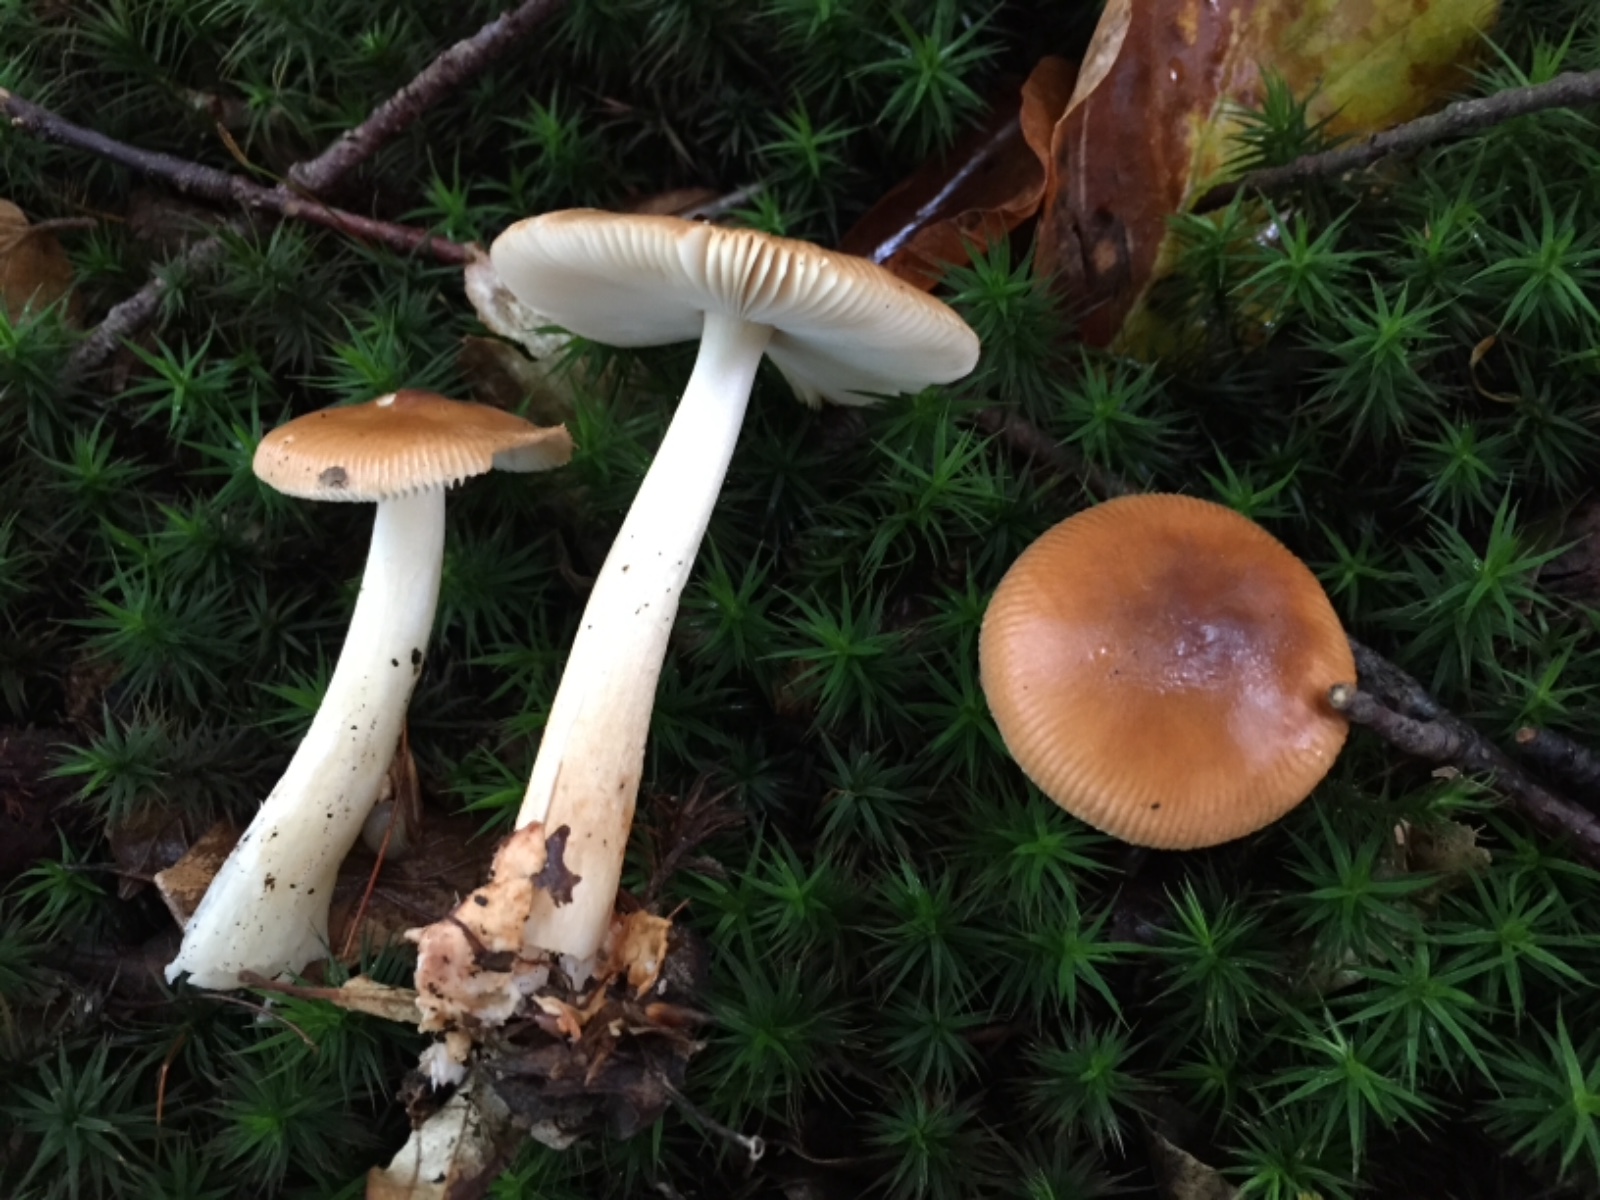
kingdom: Fungi
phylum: Basidiomycota
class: Agaricomycetes
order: Agaricales
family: Amanitaceae
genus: Amanita
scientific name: Amanita fulva
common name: brun kam-fluesvamp
